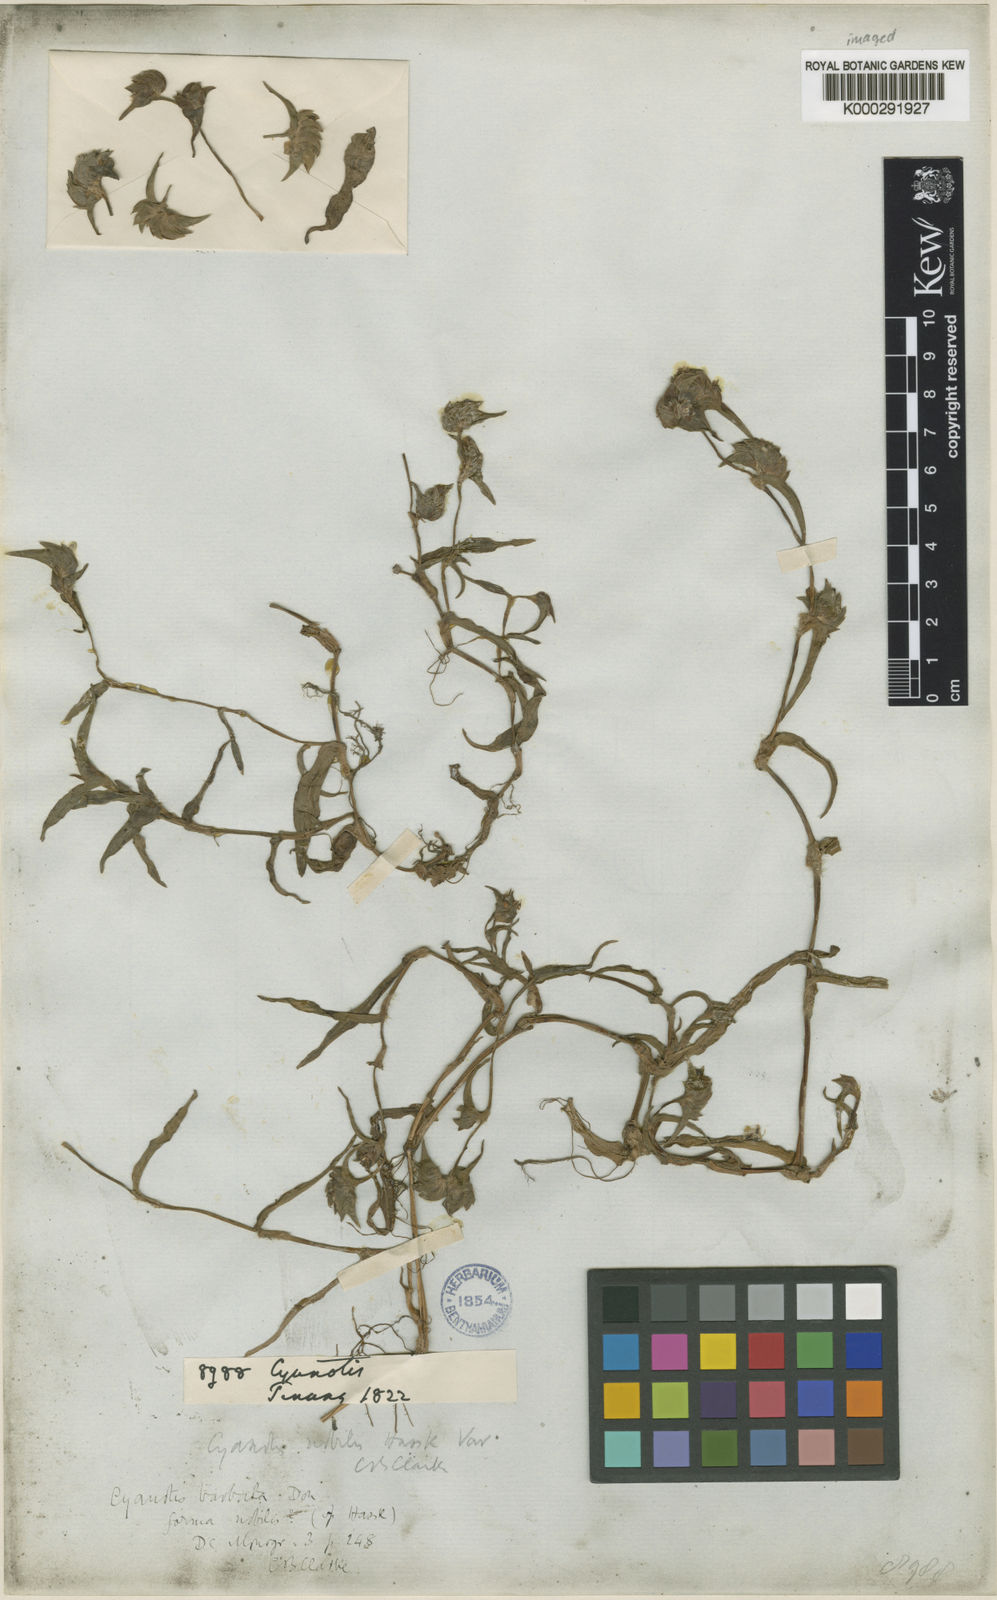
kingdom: Plantae
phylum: Tracheophyta
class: Liliopsida
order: Commelinales
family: Commelinaceae
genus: Cyanotis
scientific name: Cyanotis vaga
